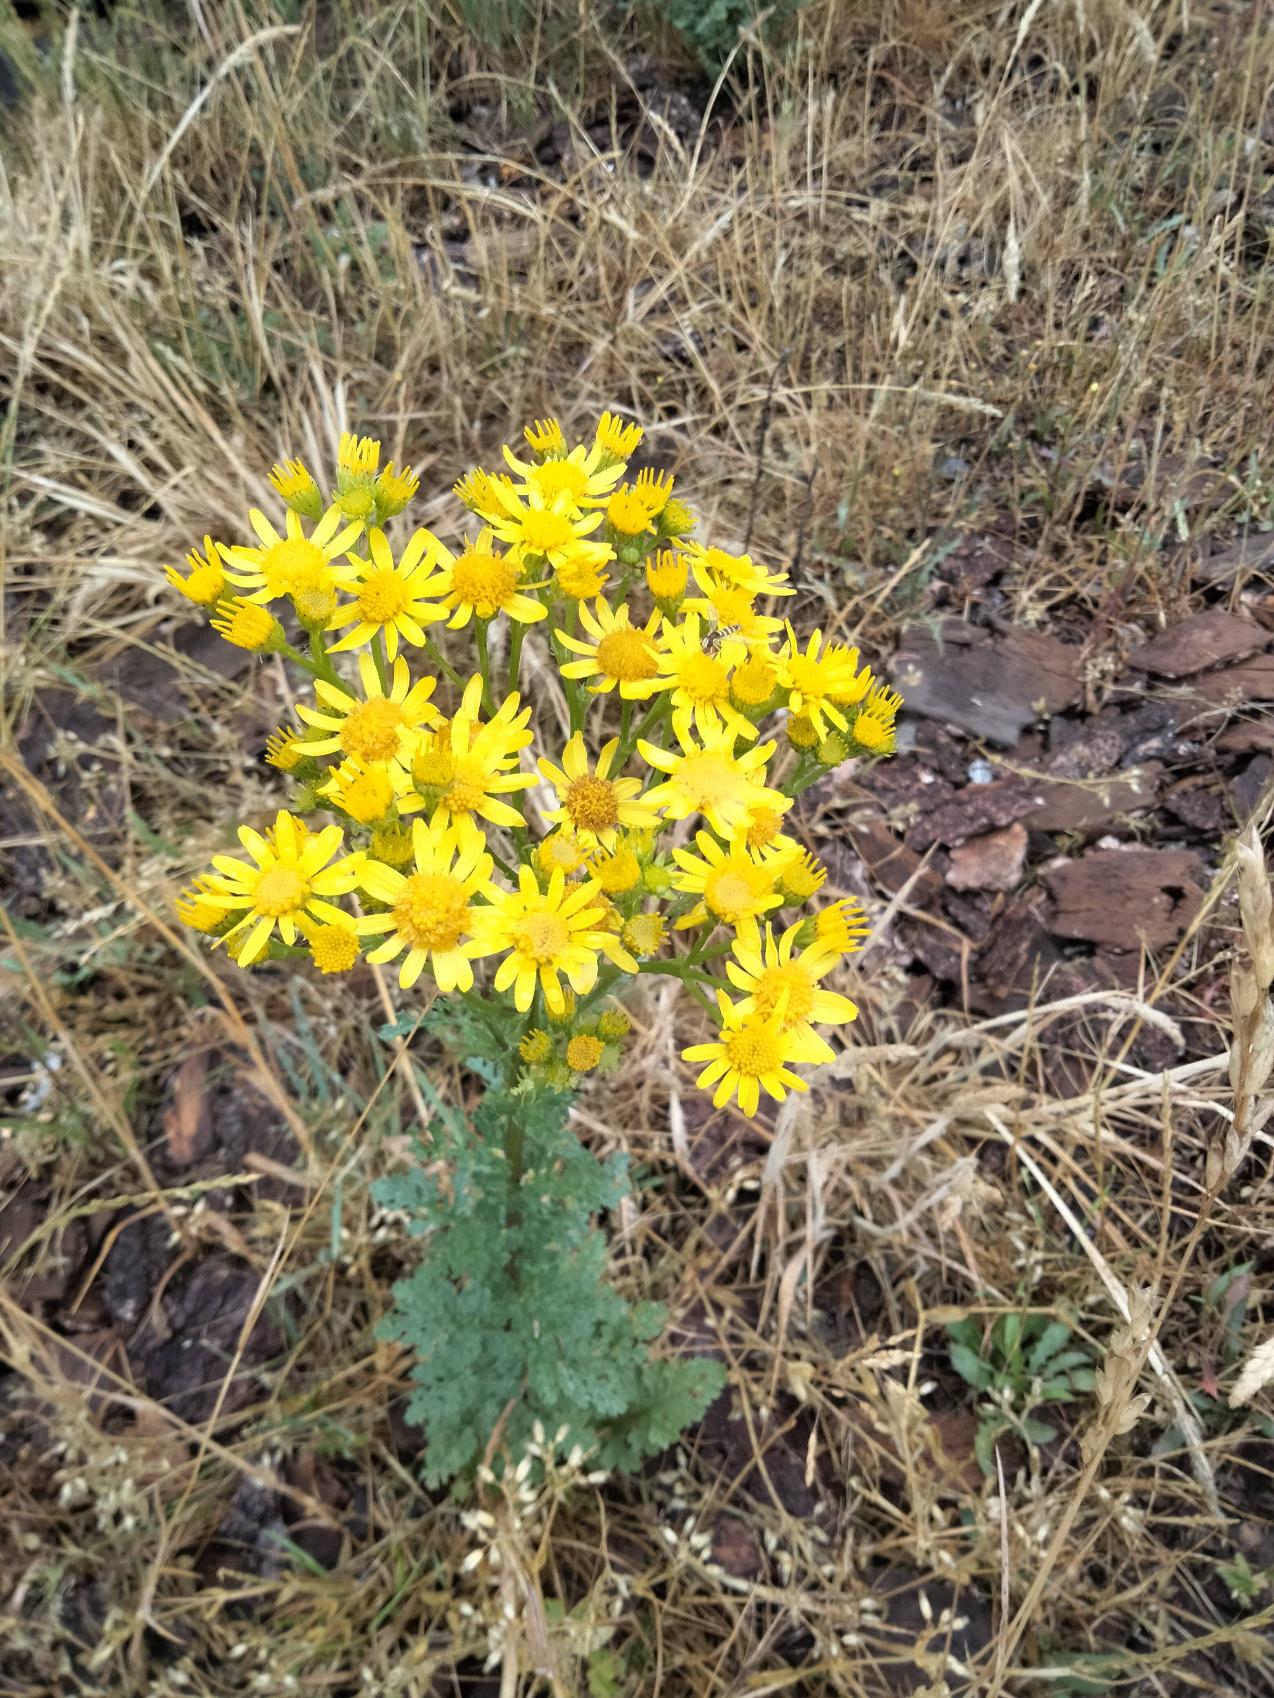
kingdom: Plantae
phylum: Tracheophyta
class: Magnoliopsida
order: Asterales
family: Asteraceae
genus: Jacobaea
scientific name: Jacobaea vulgaris
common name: Eng-brandbæger
